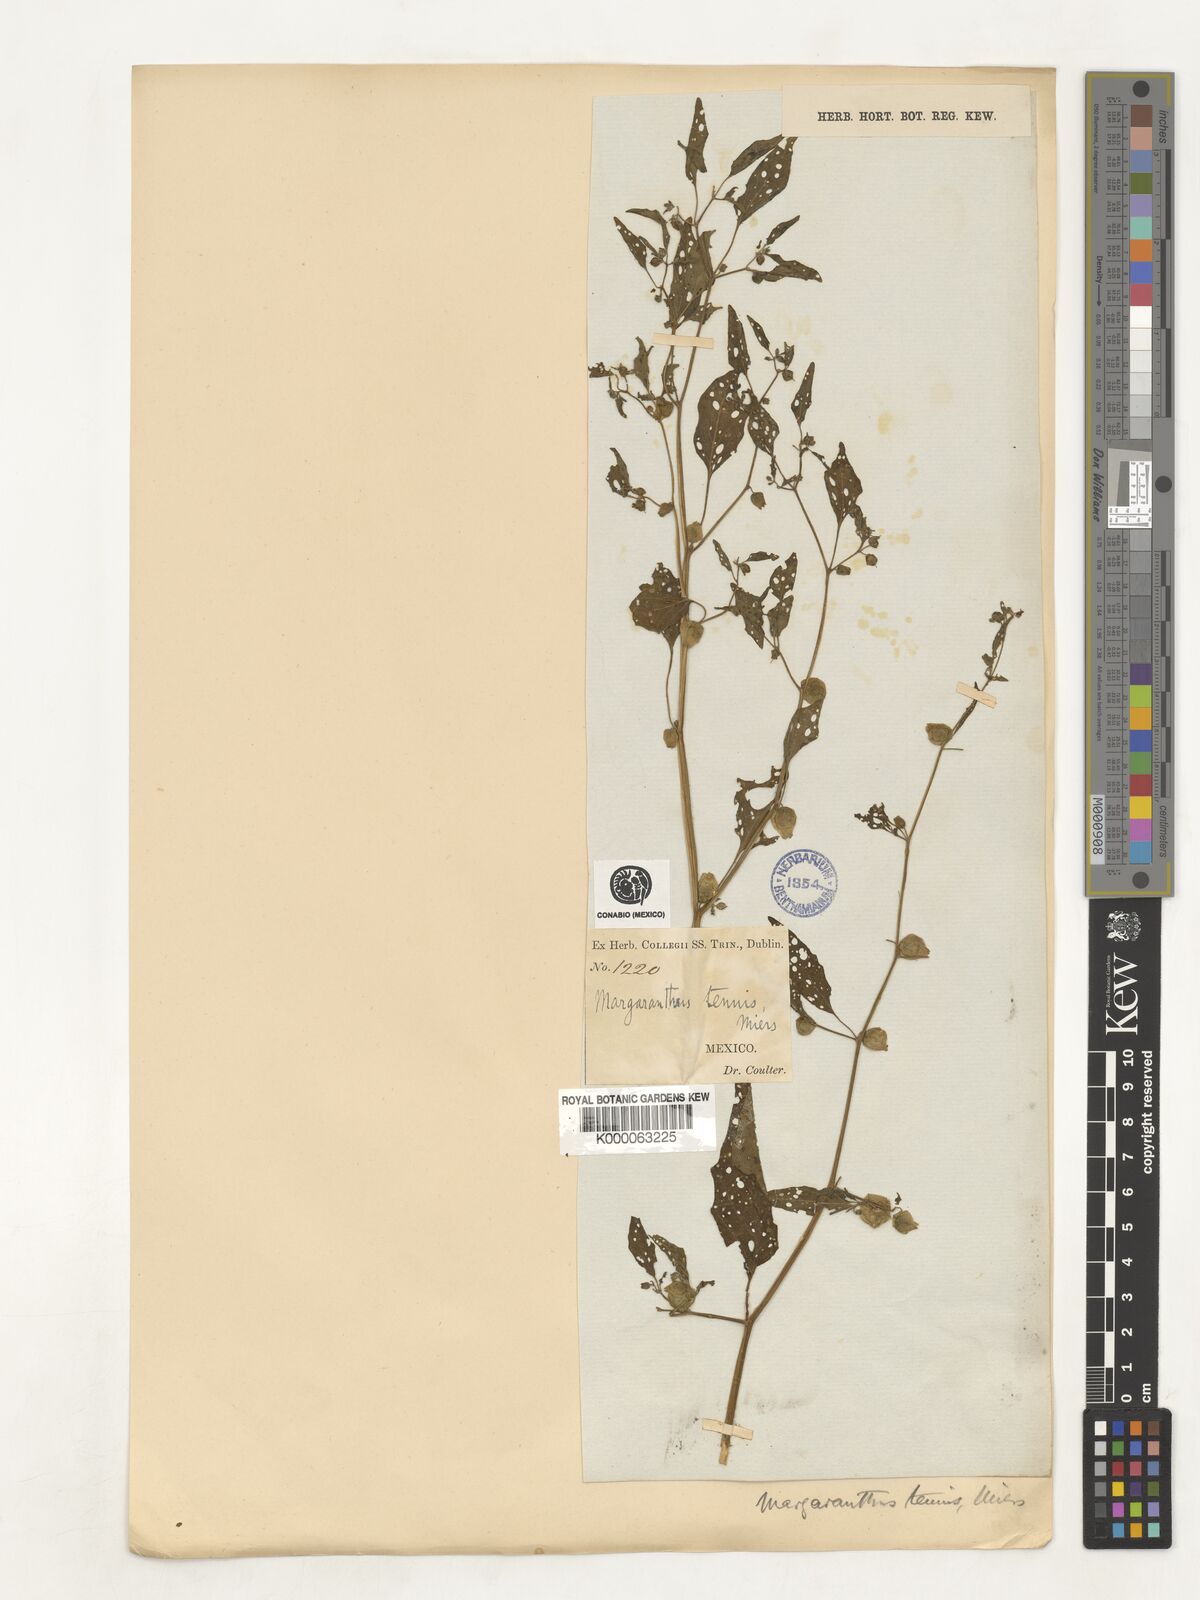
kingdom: Plantae
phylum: Tracheophyta
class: Magnoliopsida
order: Solanales
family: Solanaceae
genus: Physalis
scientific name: Physalis solanacea
